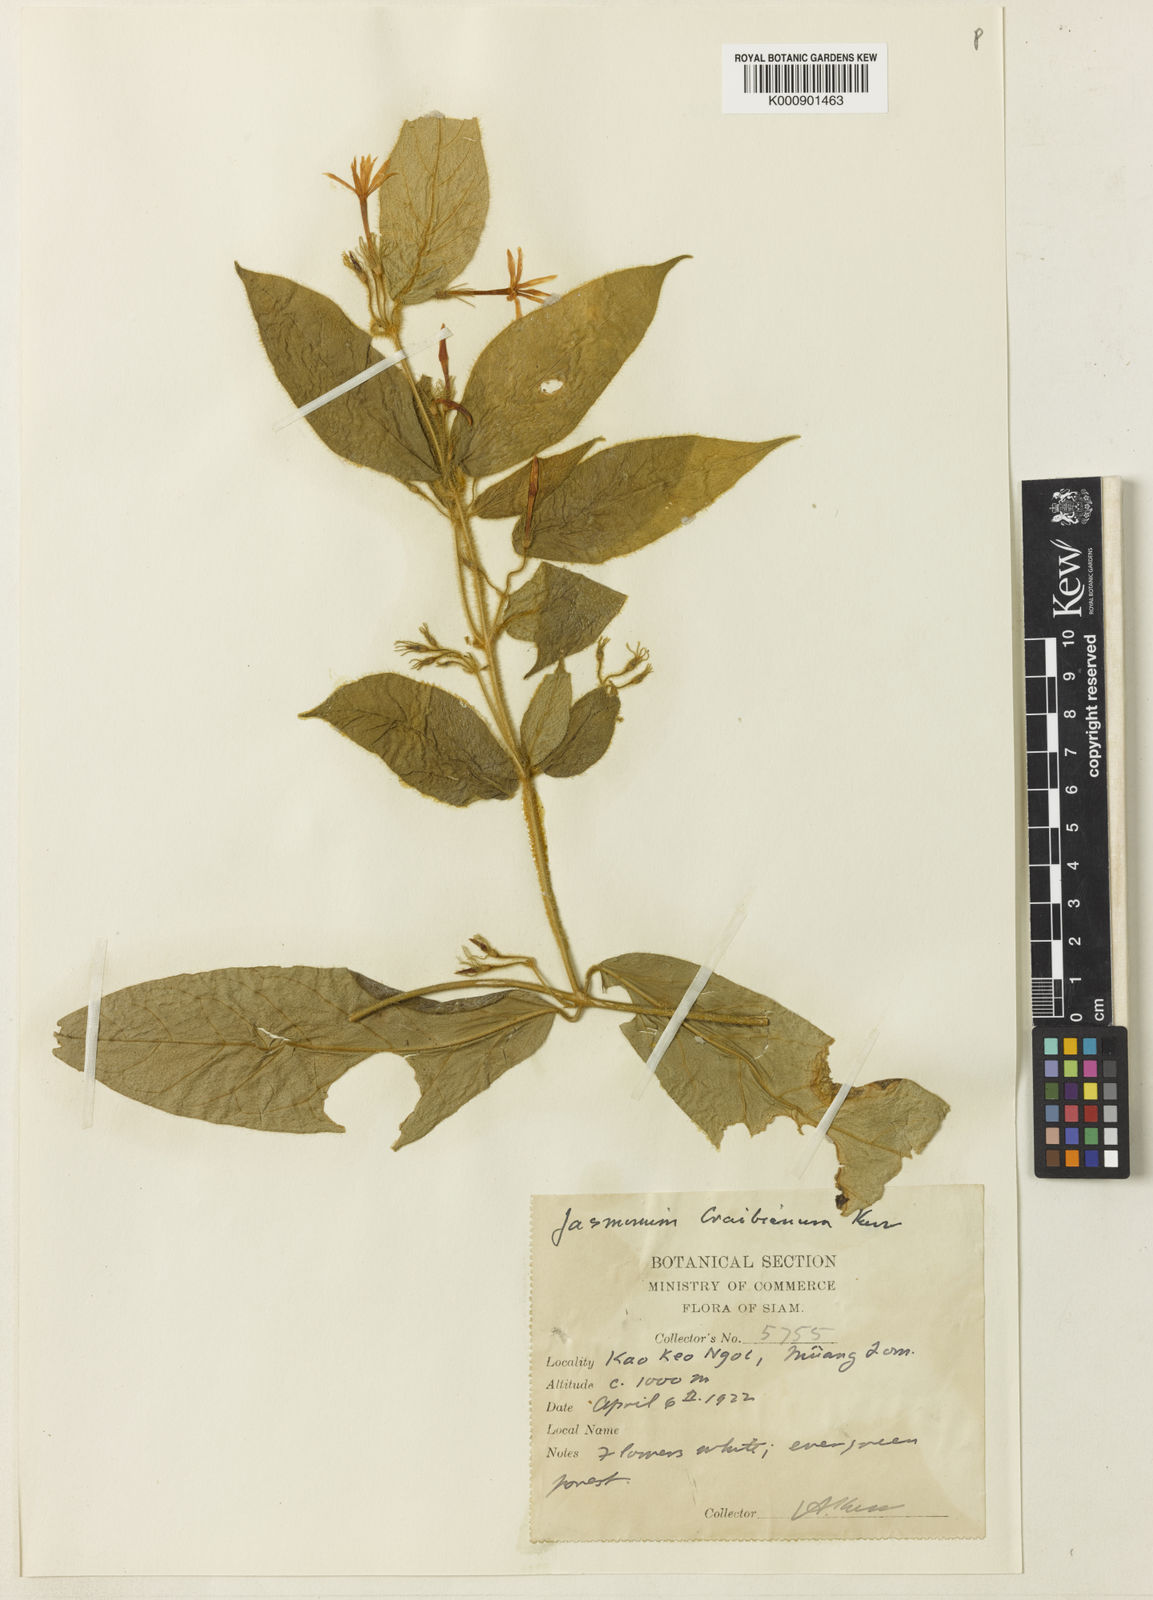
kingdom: Plantae
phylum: Tracheophyta
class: Magnoliopsida
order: Lamiales
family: Oleaceae
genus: Jasminum
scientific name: Jasminum craibianum
